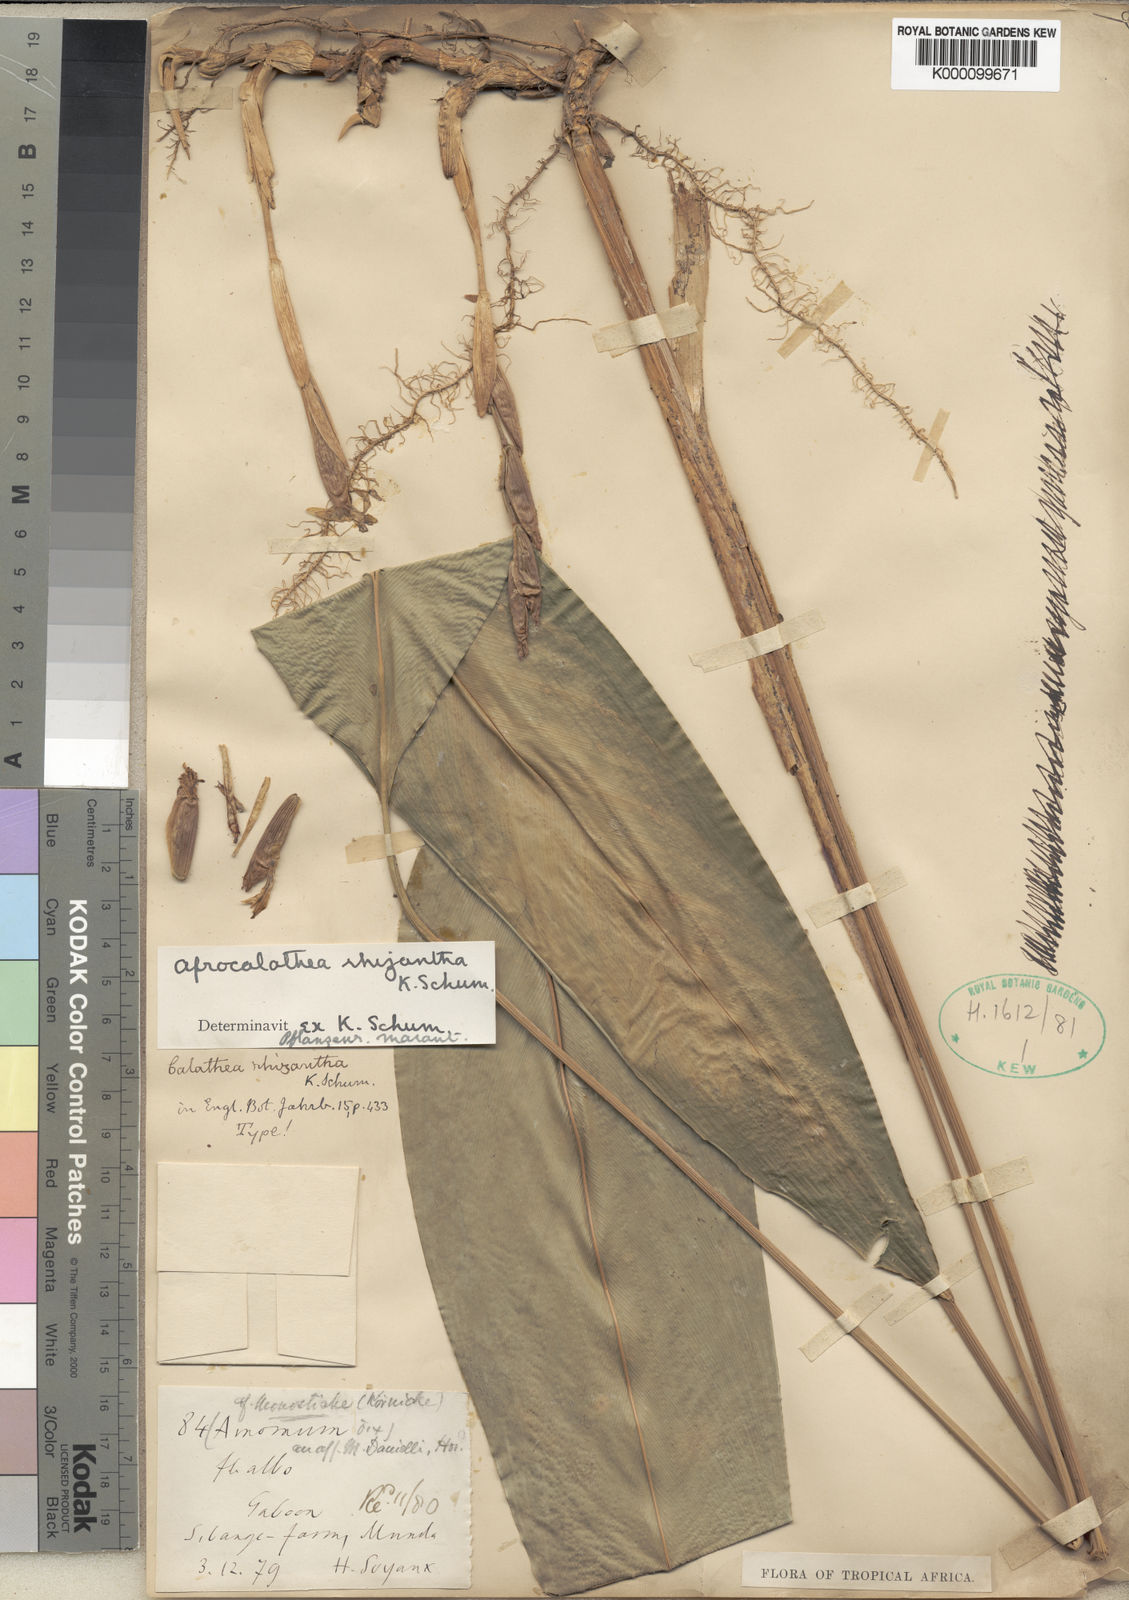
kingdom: Plantae
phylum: Tracheophyta
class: Liliopsida
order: Zingiberales
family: Marantaceae
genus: Afrocalathea
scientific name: Afrocalathea rhizantha
